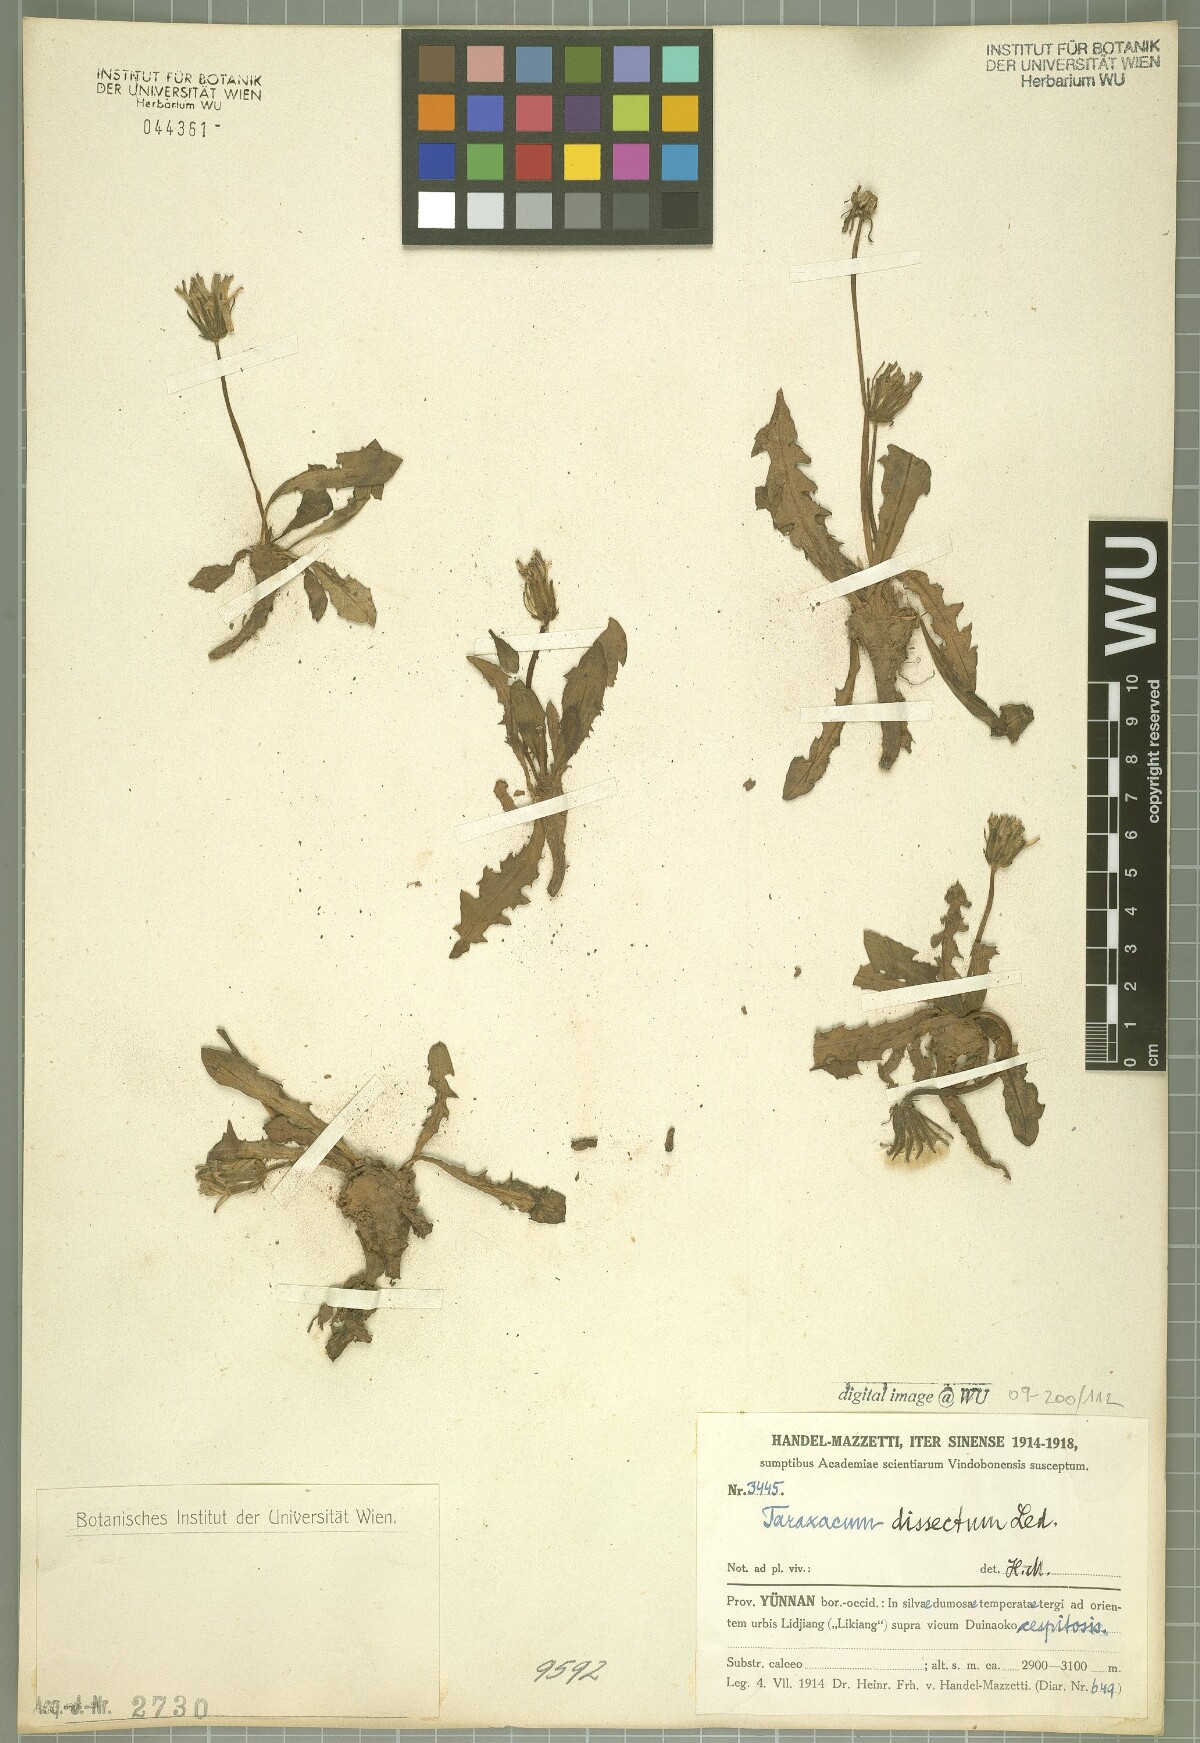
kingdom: Plantae
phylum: Tracheophyta
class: Magnoliopsida
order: Asterales
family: Asteraceae
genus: Taraxacum
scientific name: Taraxacum dissectum
